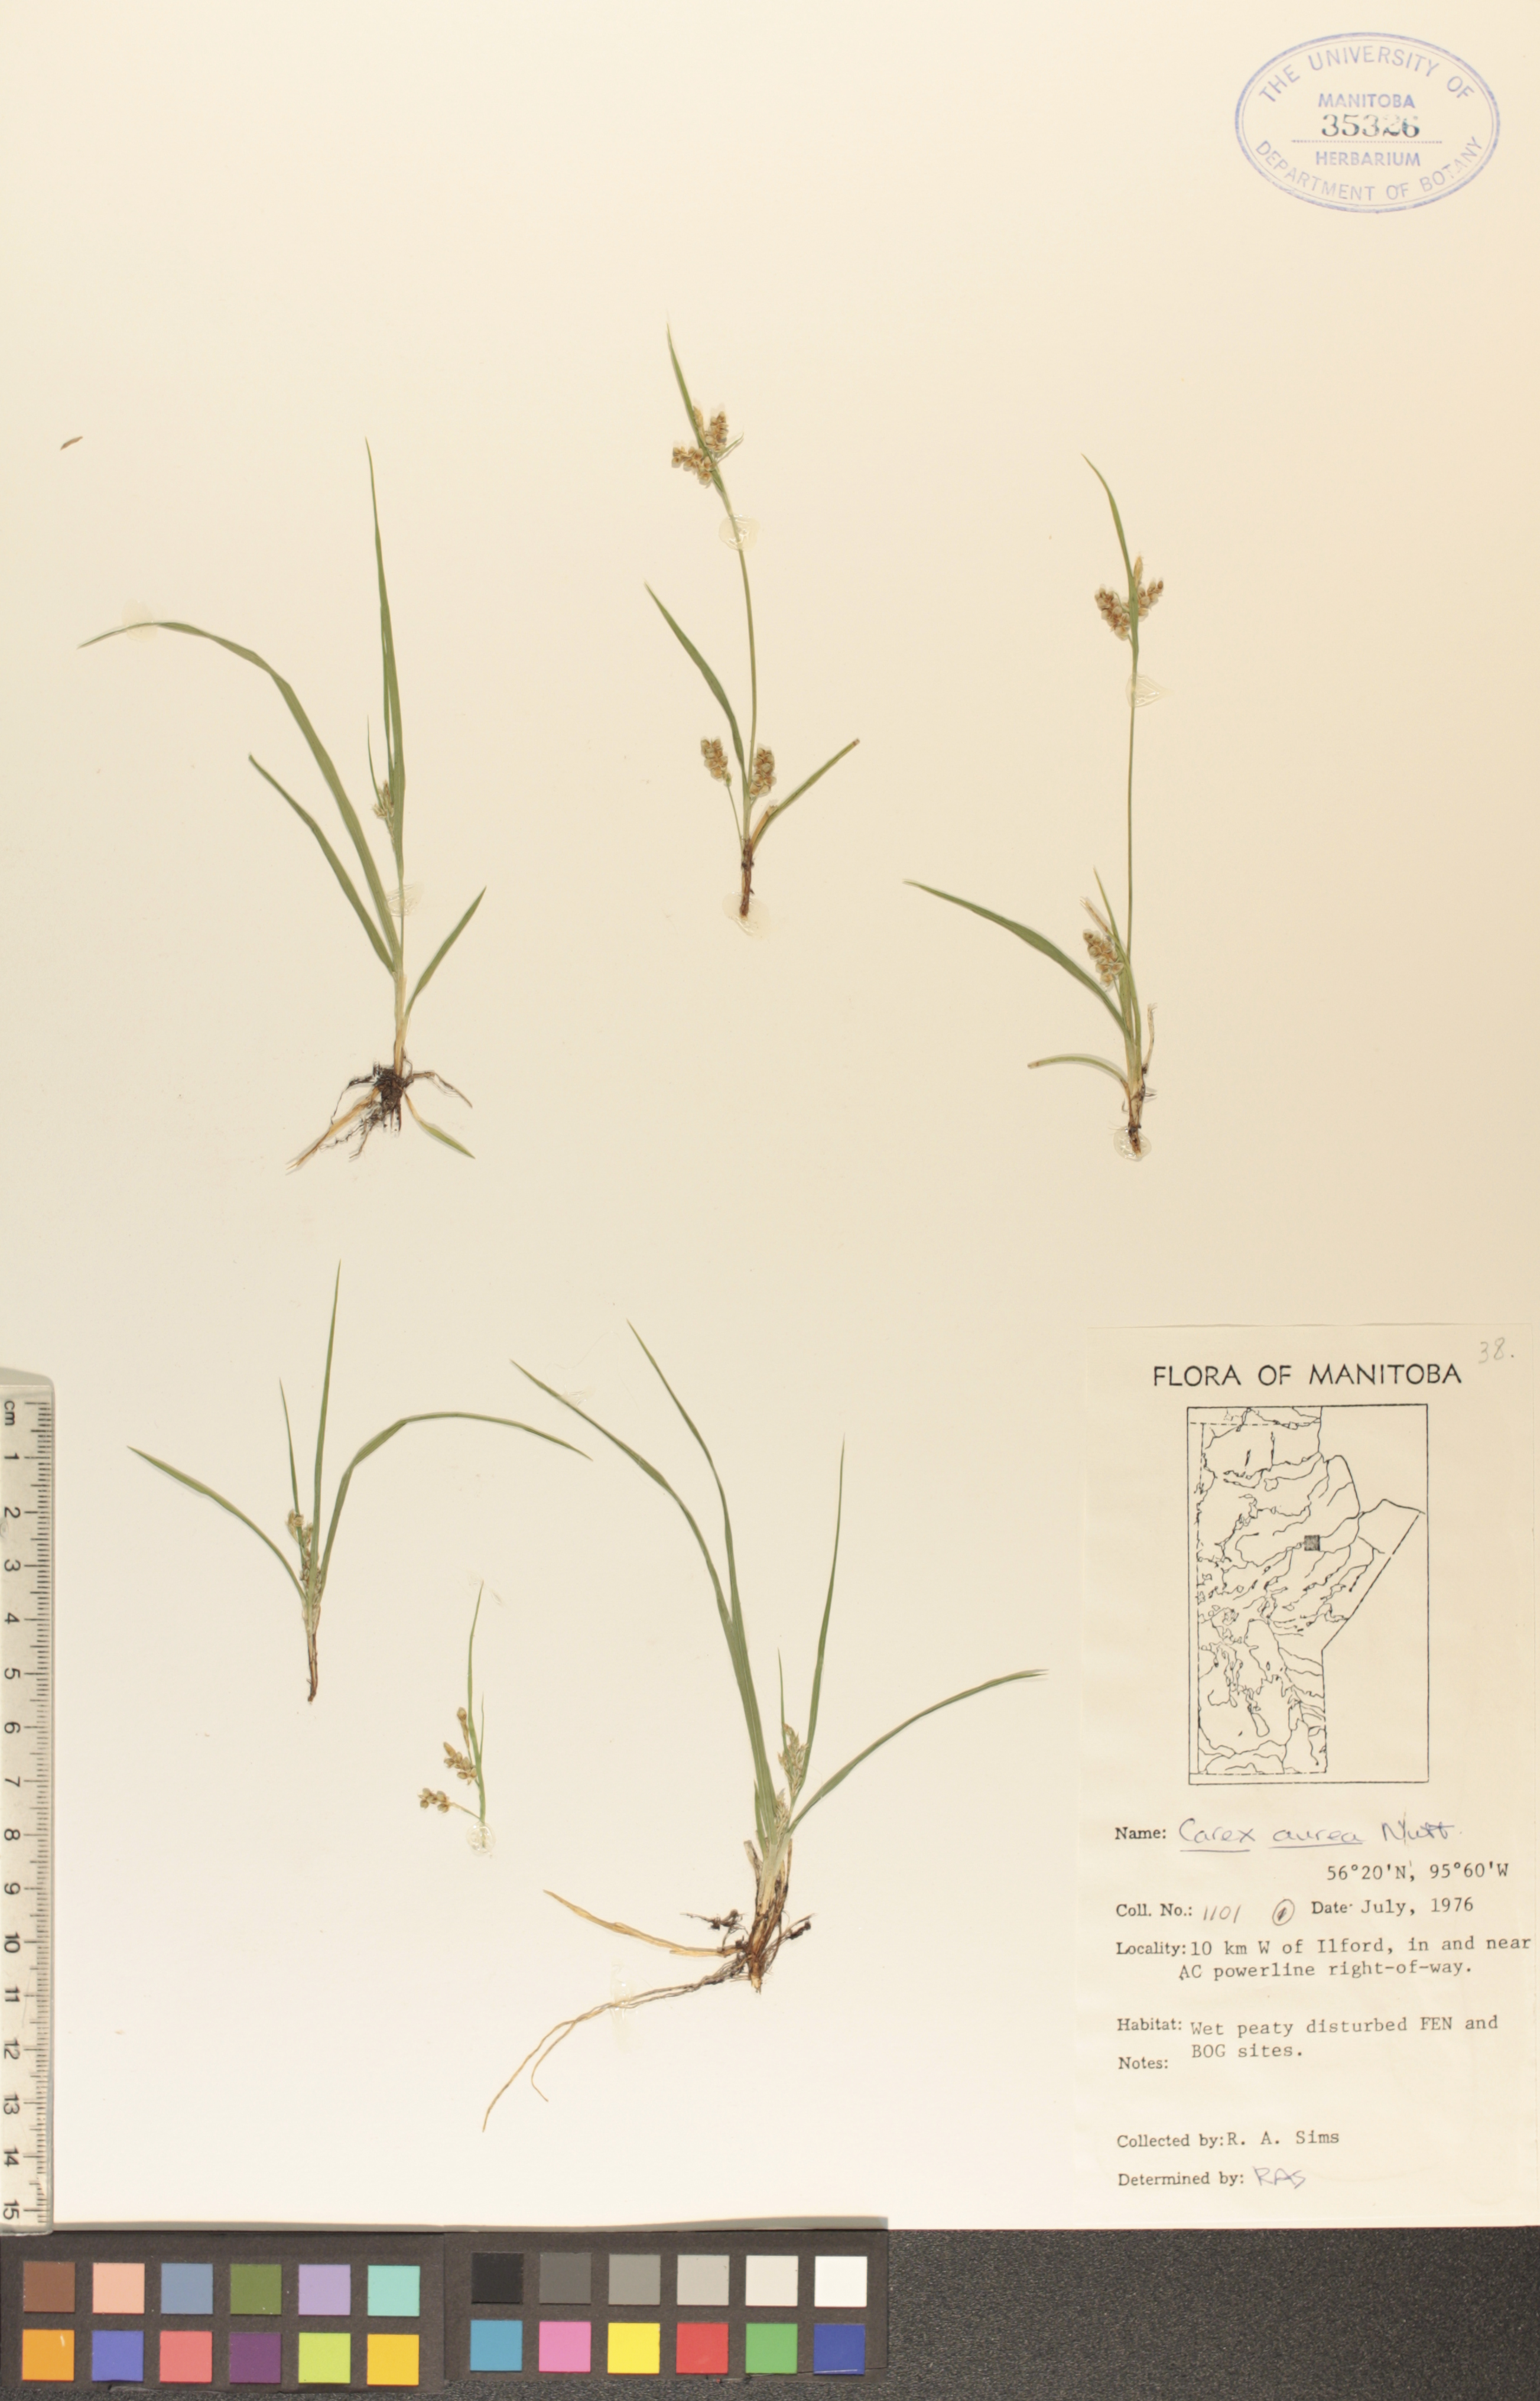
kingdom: Plantae
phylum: Tracheophyta
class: Liliopsida
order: Poales
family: Cyperaceae
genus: Carex
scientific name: Carex aurea
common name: Golden sedge
